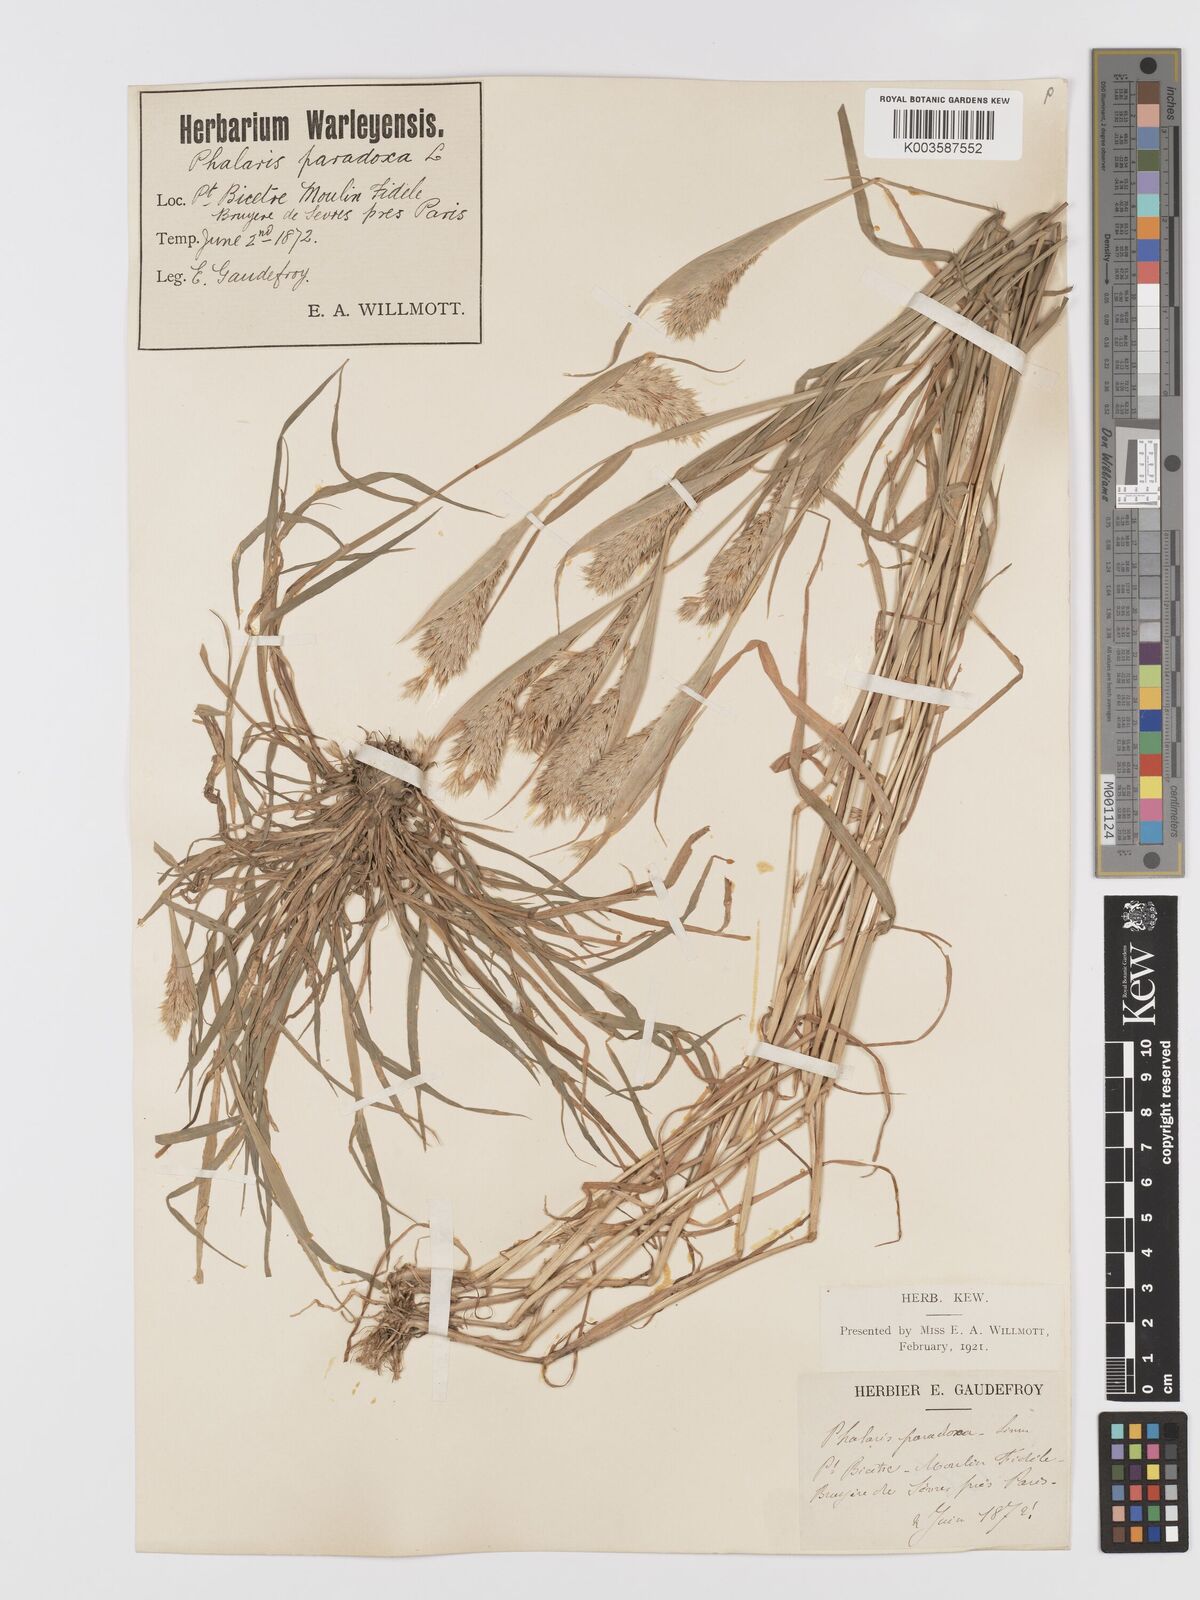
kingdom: Plantae
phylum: Tracheophyta
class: Liliopsida
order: Poales
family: Poaceae
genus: Phalaris
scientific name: Phalaris paradoxa
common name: Awned canary-grass
